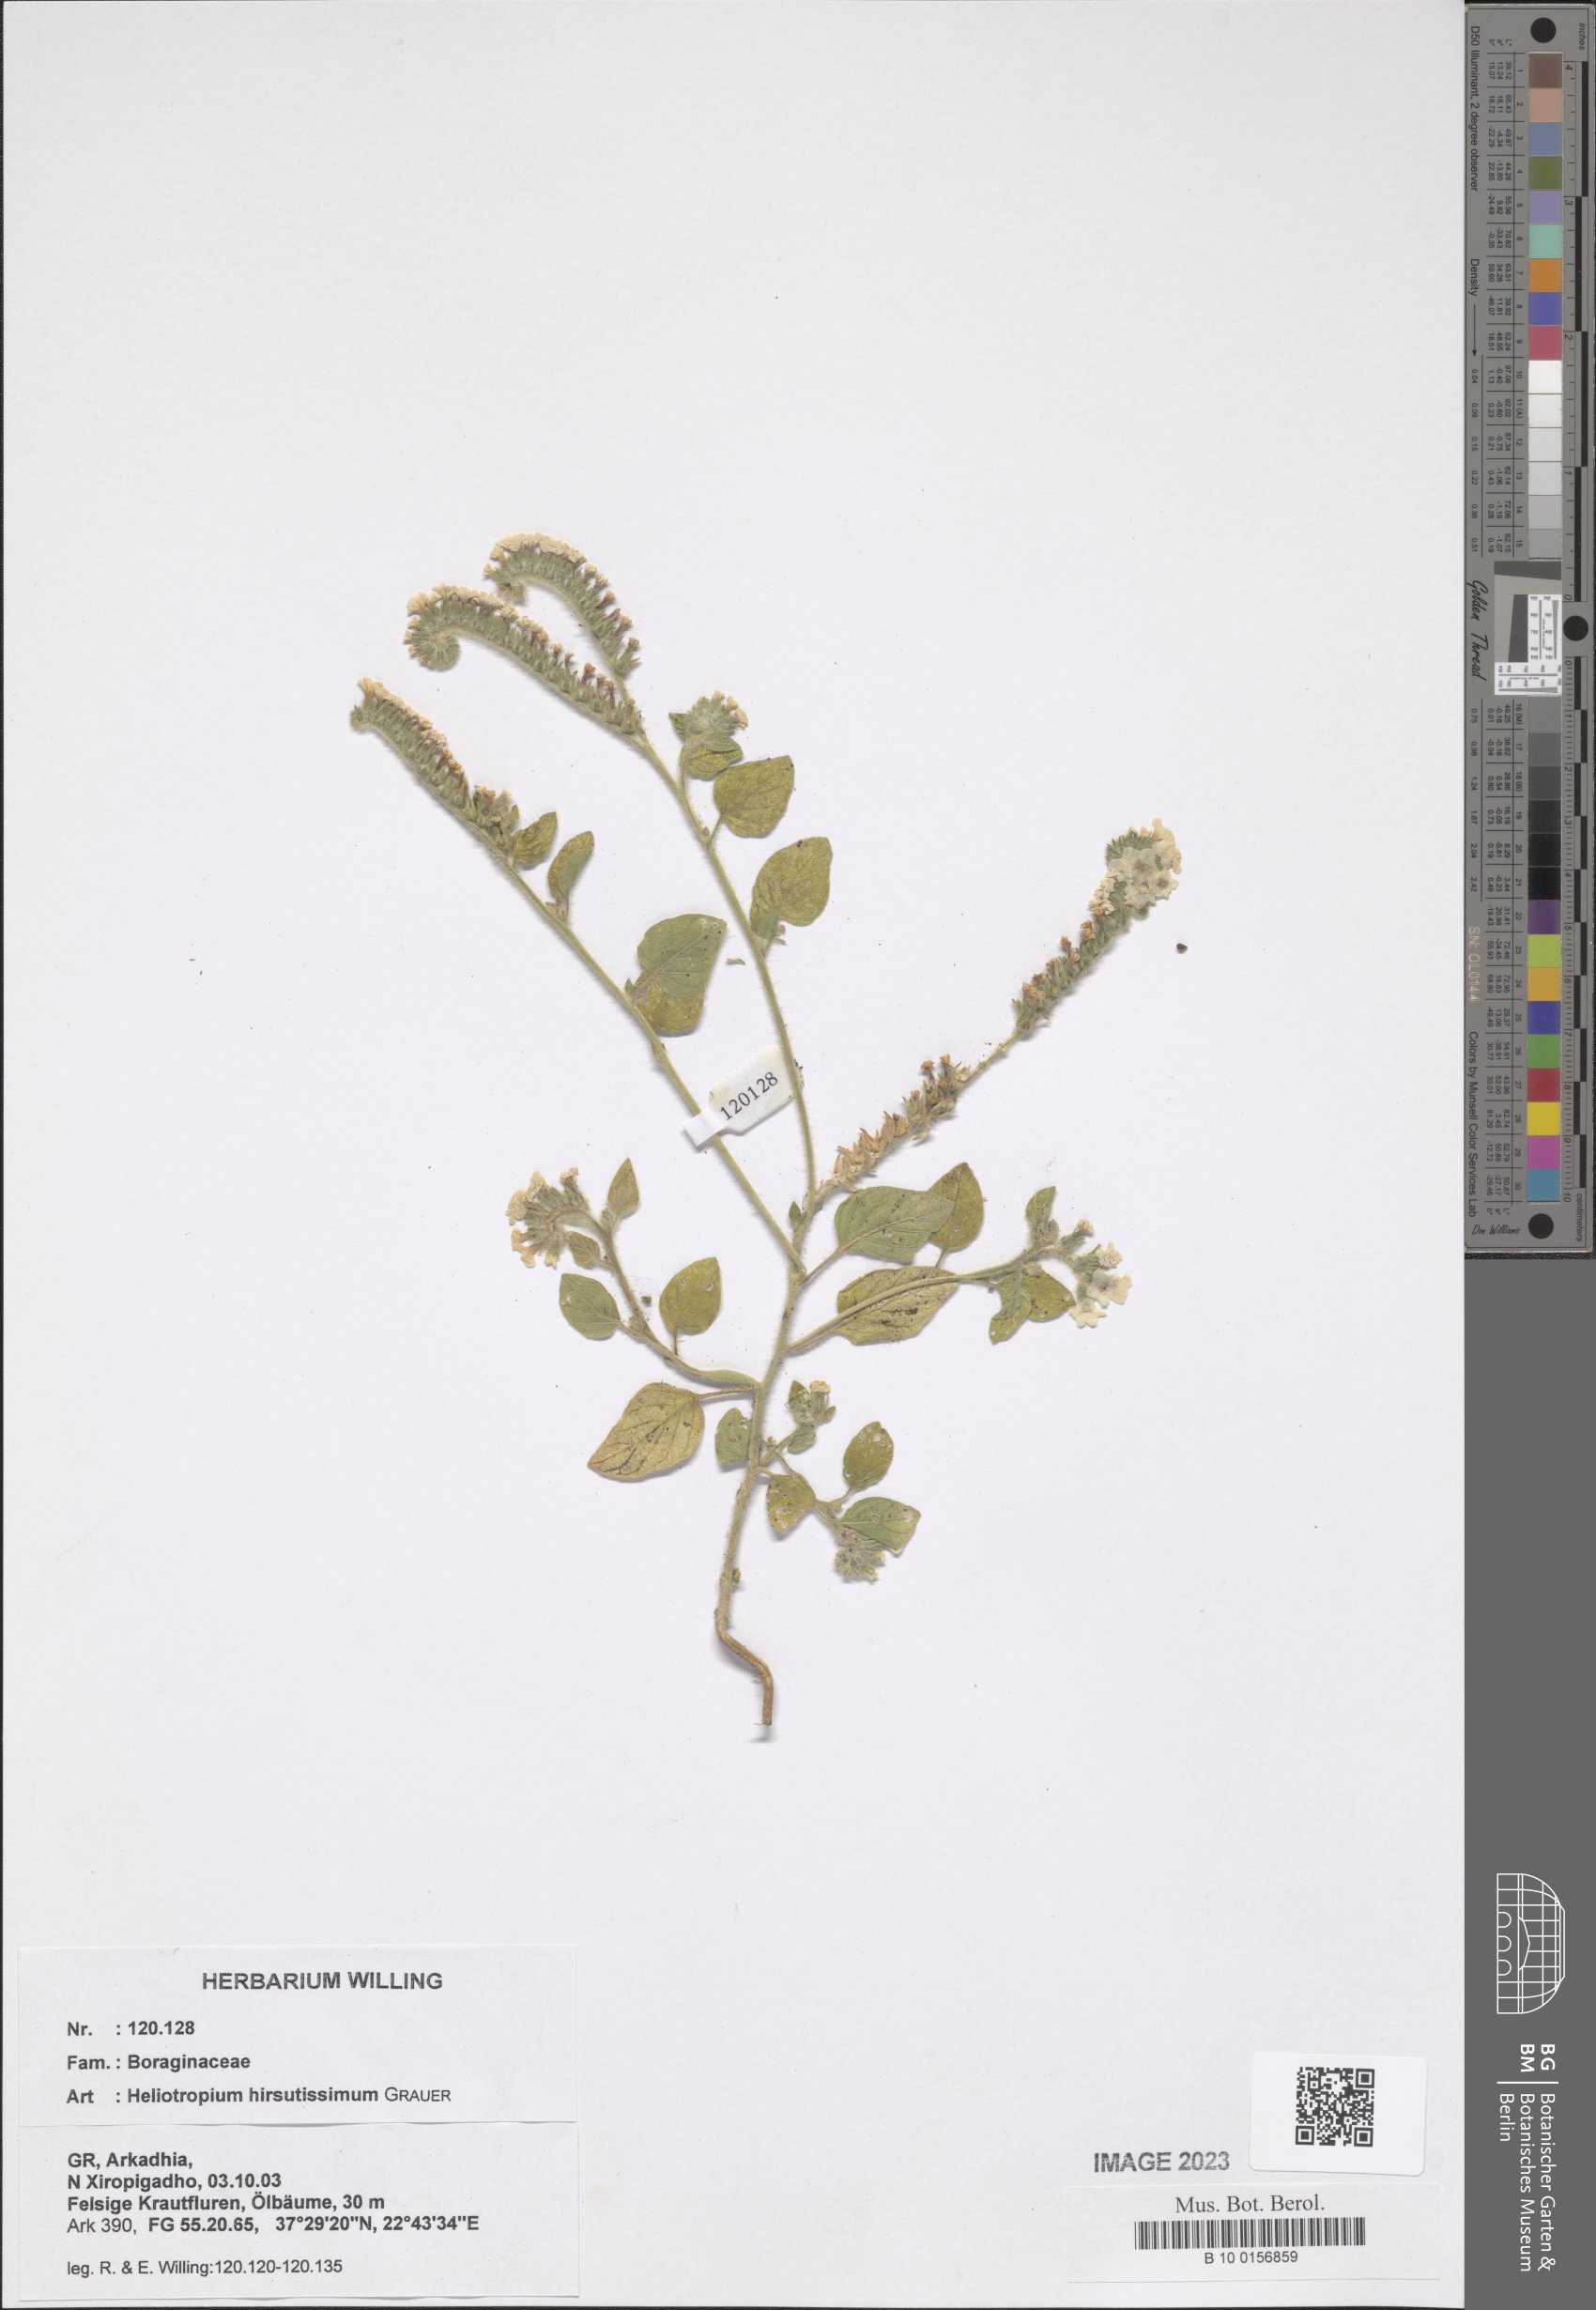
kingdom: Plantae
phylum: Tracheophyta
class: Magnoliopsida
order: Boraginales
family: Heliotropiaceae
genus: Heliotropium
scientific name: Heliotropium hirsutissimum
